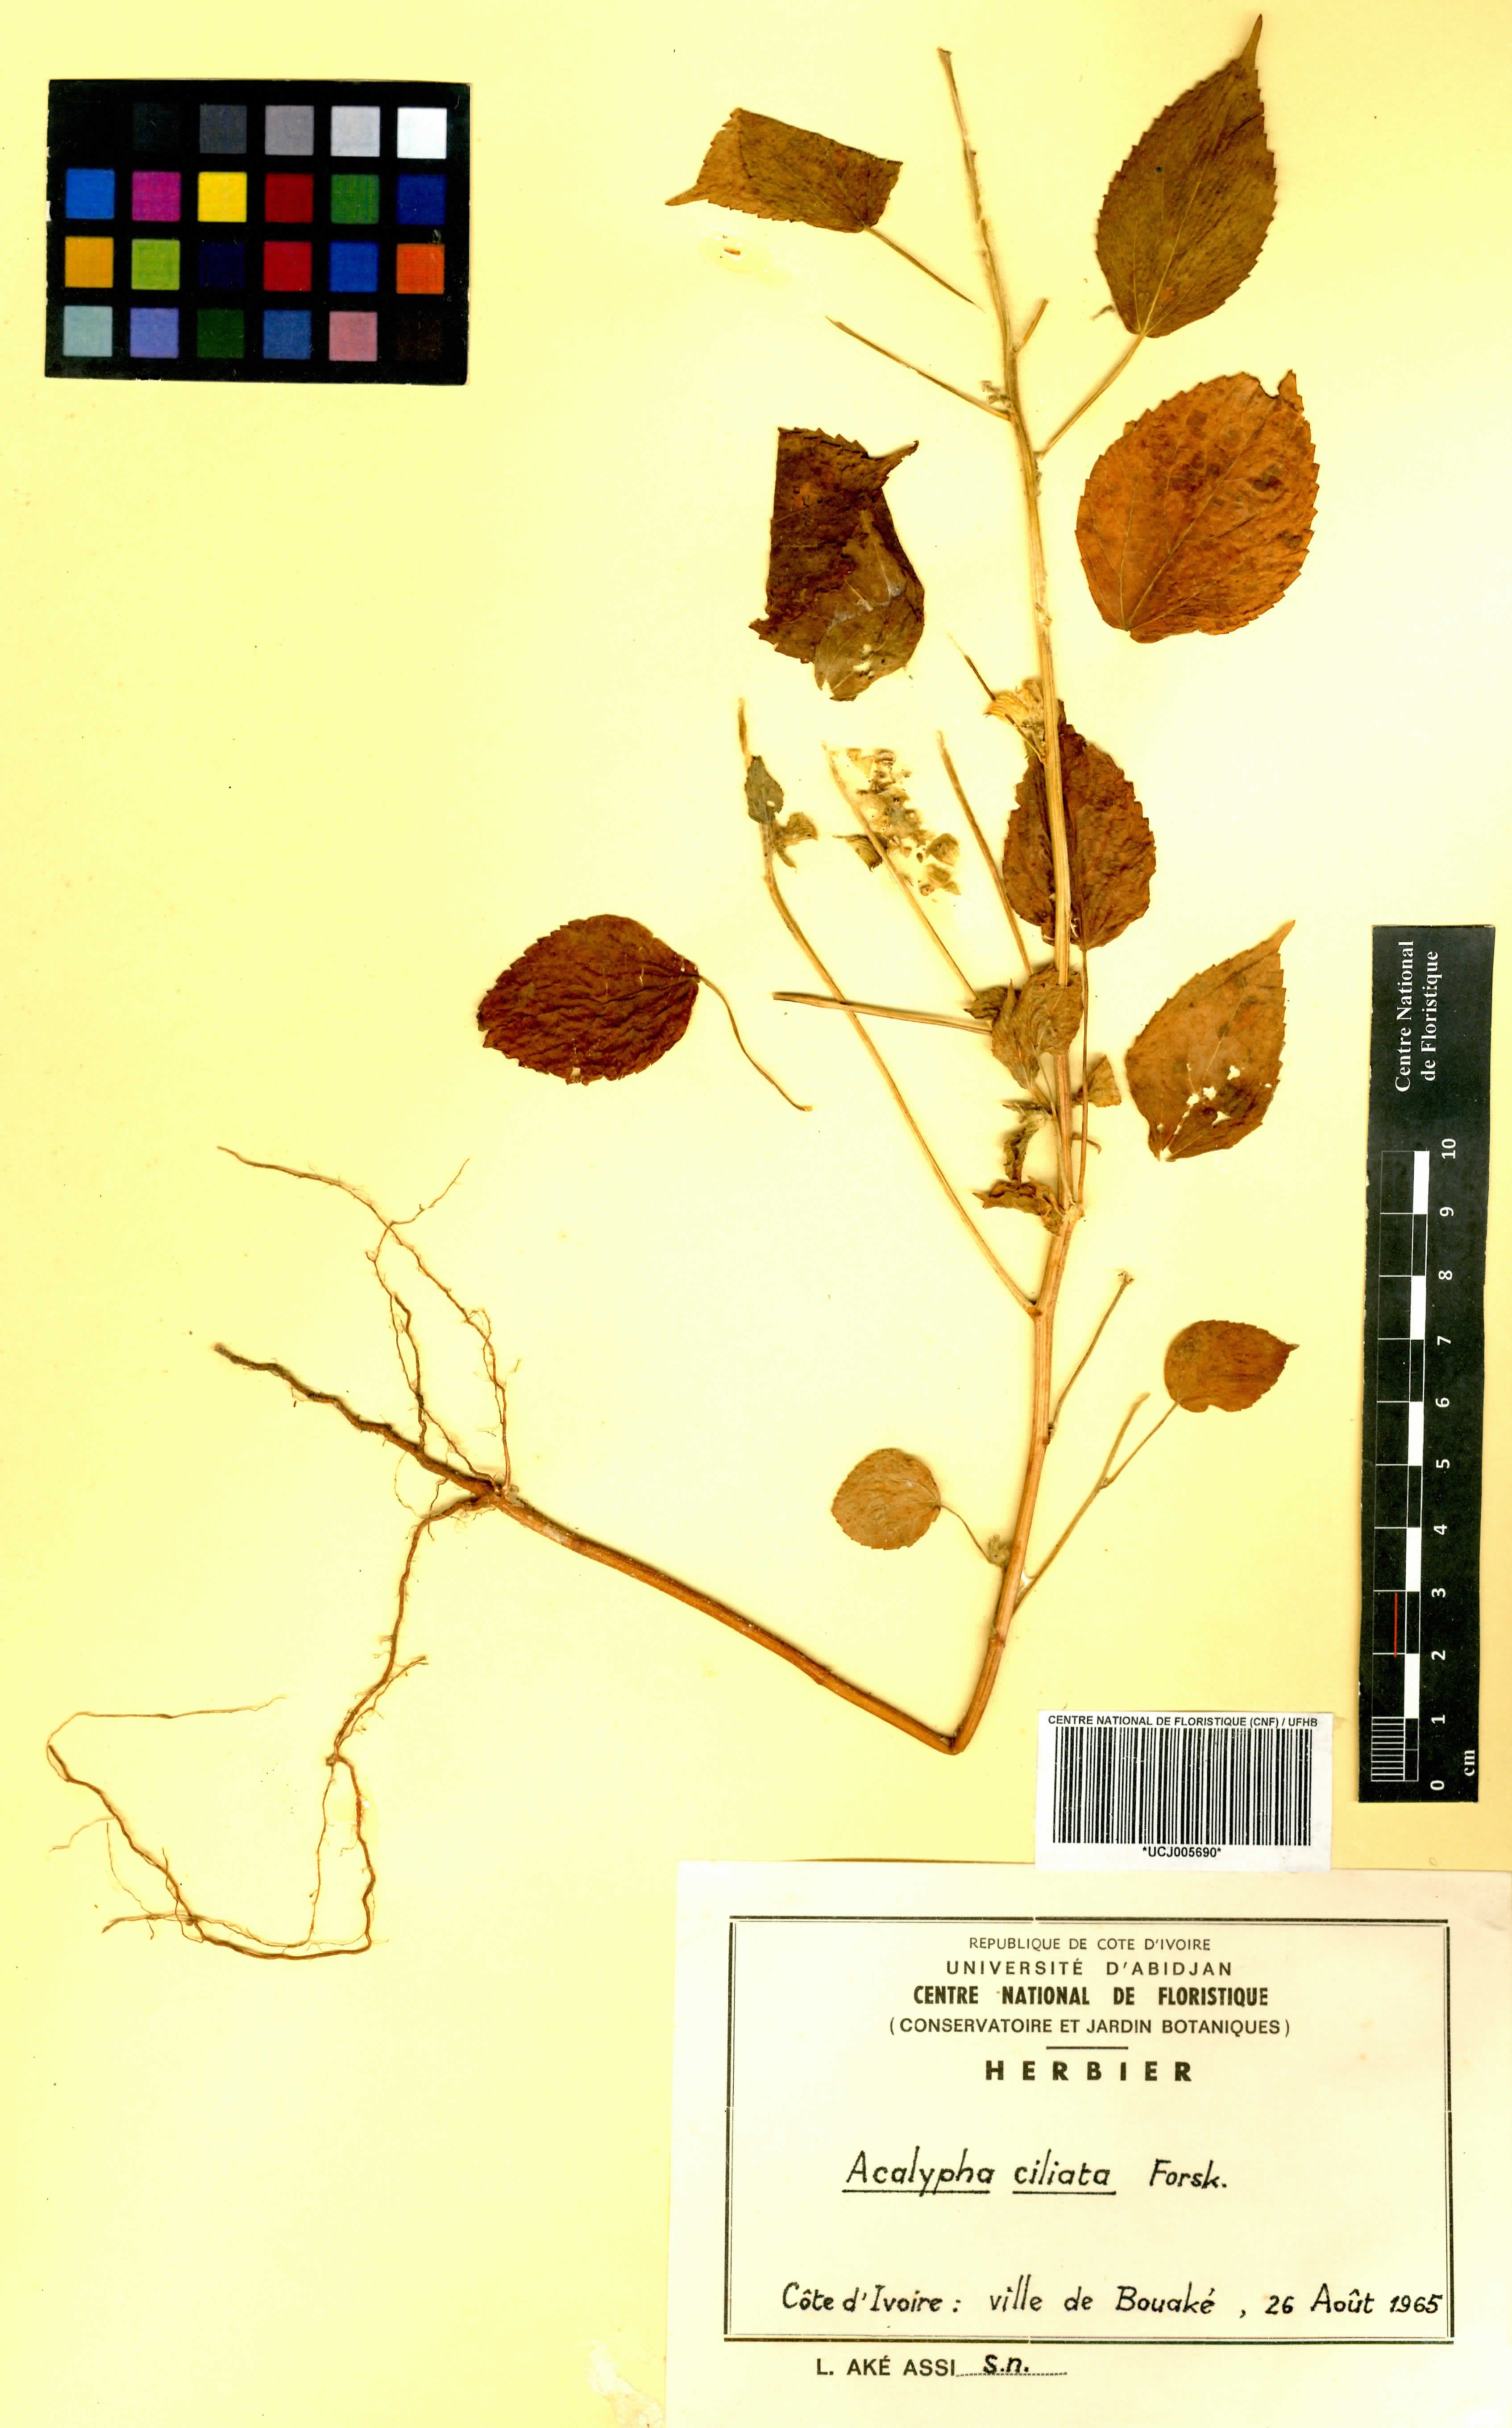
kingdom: Plantae
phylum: Tracheophyta
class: Magnoliopsida
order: Malpighiales
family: Phyllanthaceae
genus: Maesobotrya
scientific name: Maesobotrya
